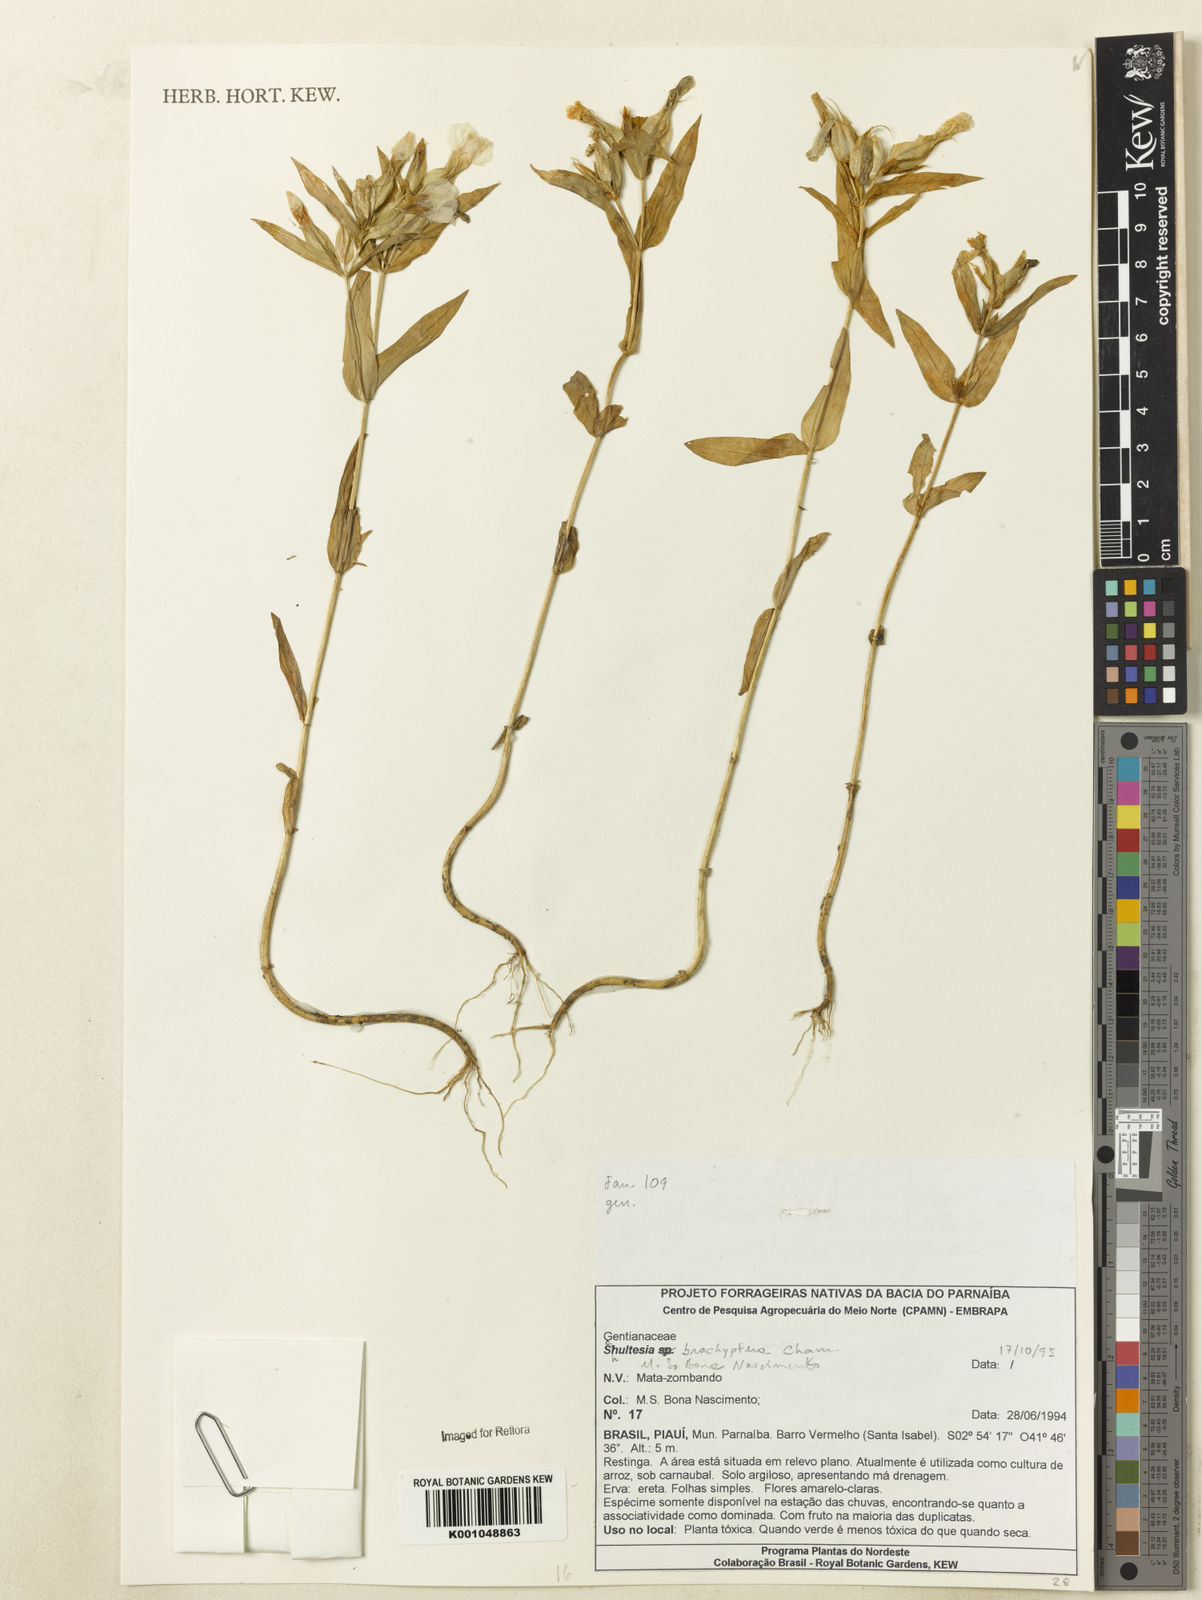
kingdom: Plantae
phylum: Tracheophyta
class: Magnoliopsida
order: Gentianales
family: Gentianaceae
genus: Schultesia
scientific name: Schultesia brachyptera
